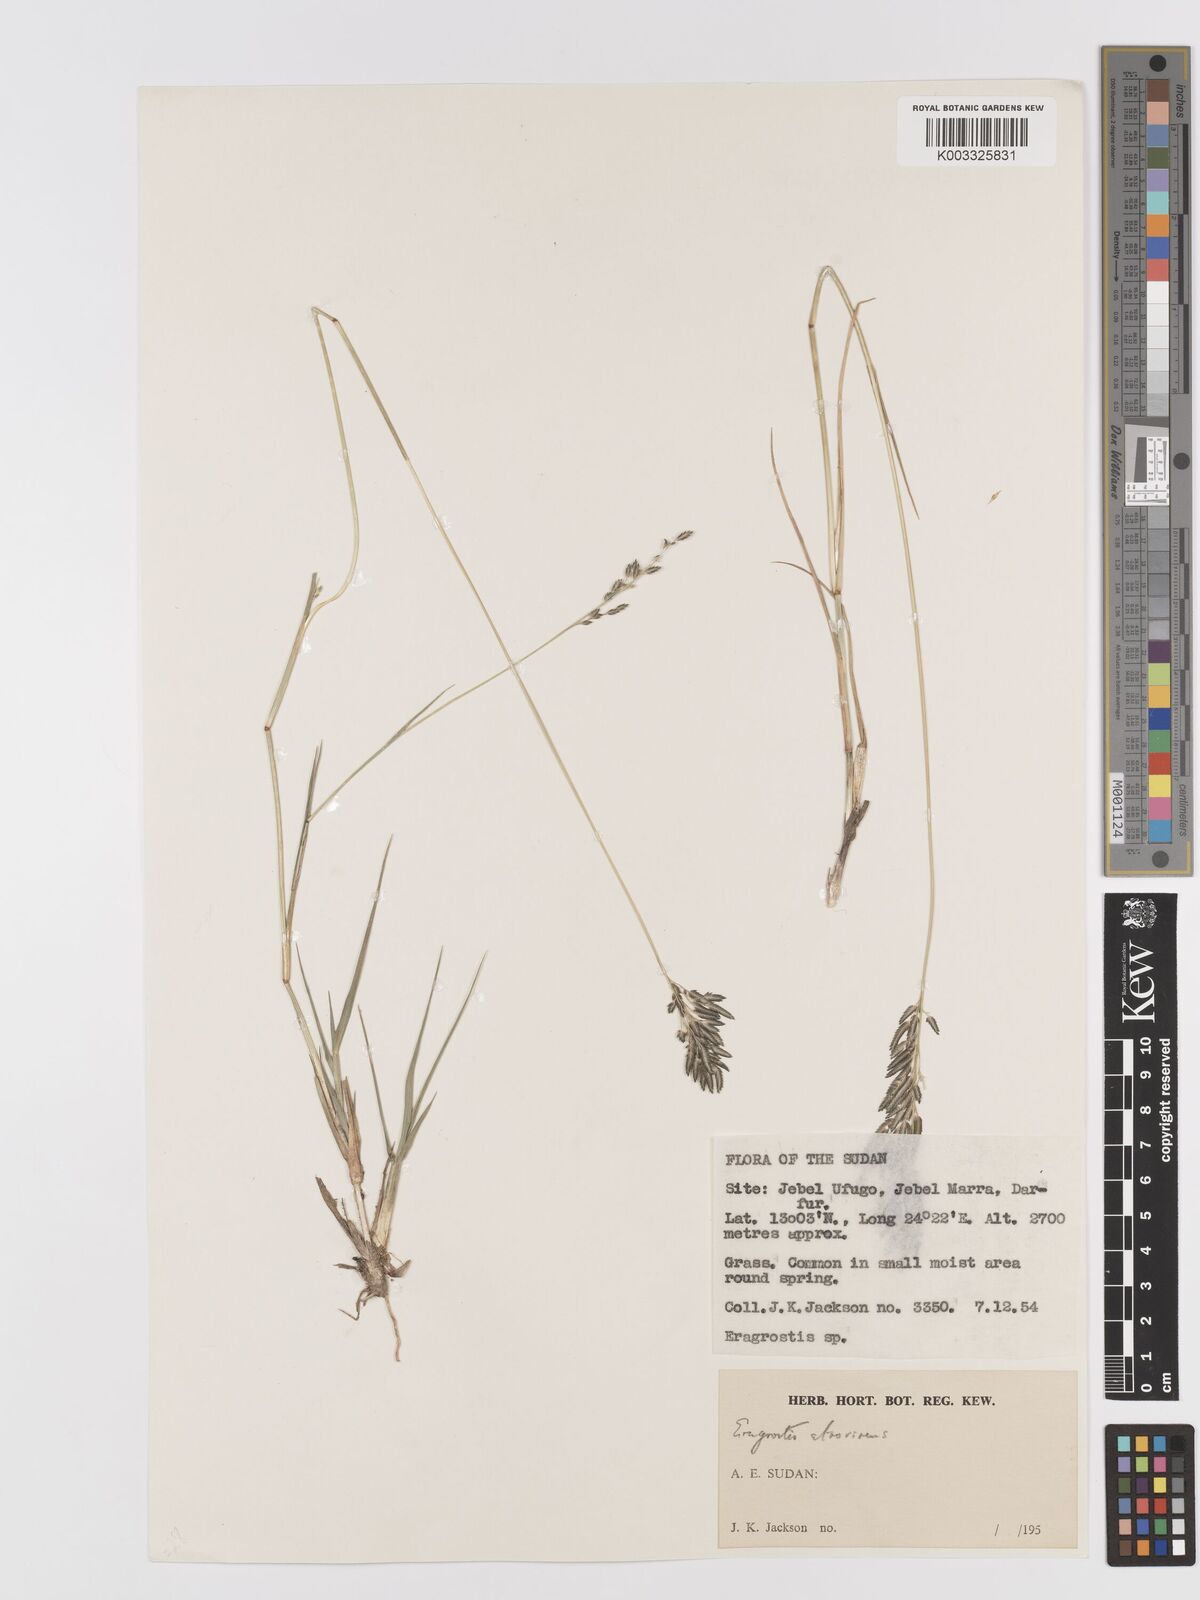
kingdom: Plantae
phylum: Tracheophyta
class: Liliopsida
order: Poales
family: Poaceae
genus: Eragrostis
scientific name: Eragrostis atrovirens
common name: Thalia lovegrass
